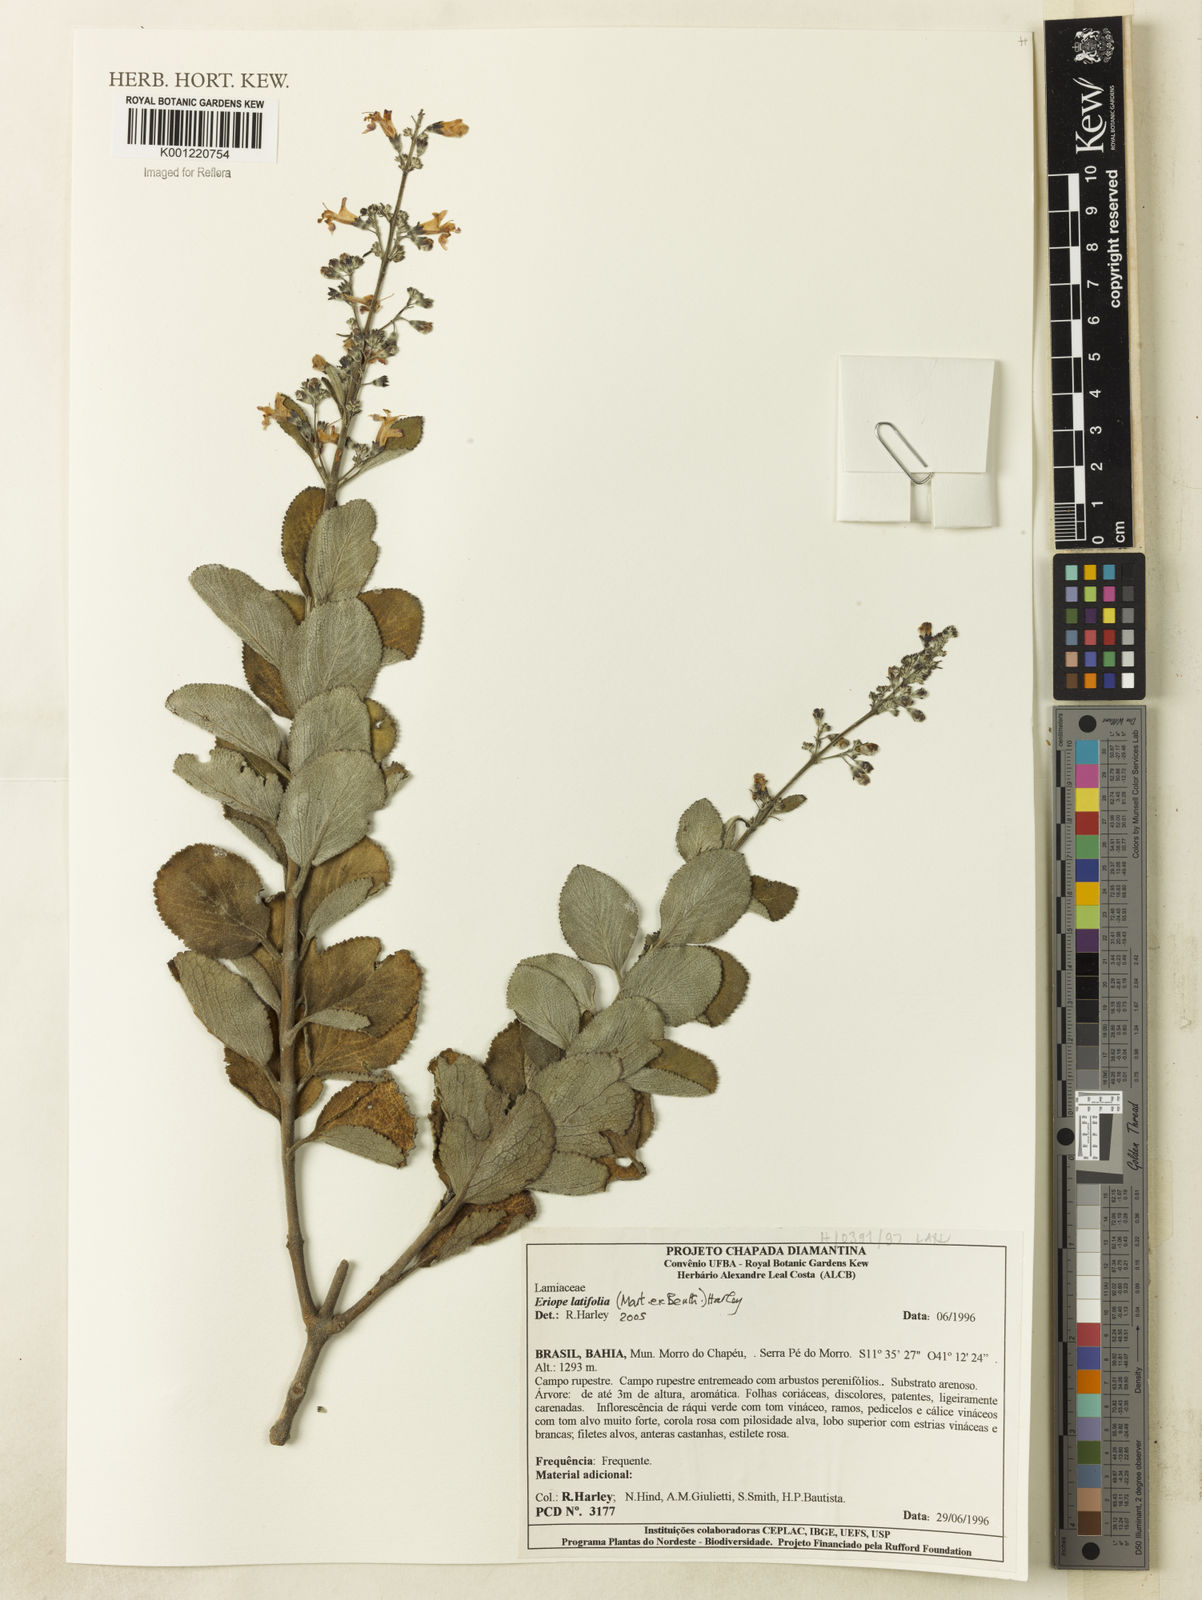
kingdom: Plantae
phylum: Tracheophyta
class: Magnoliopsida
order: Lamiales
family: Lamiaceae
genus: Eriope
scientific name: Eriope latifolia
